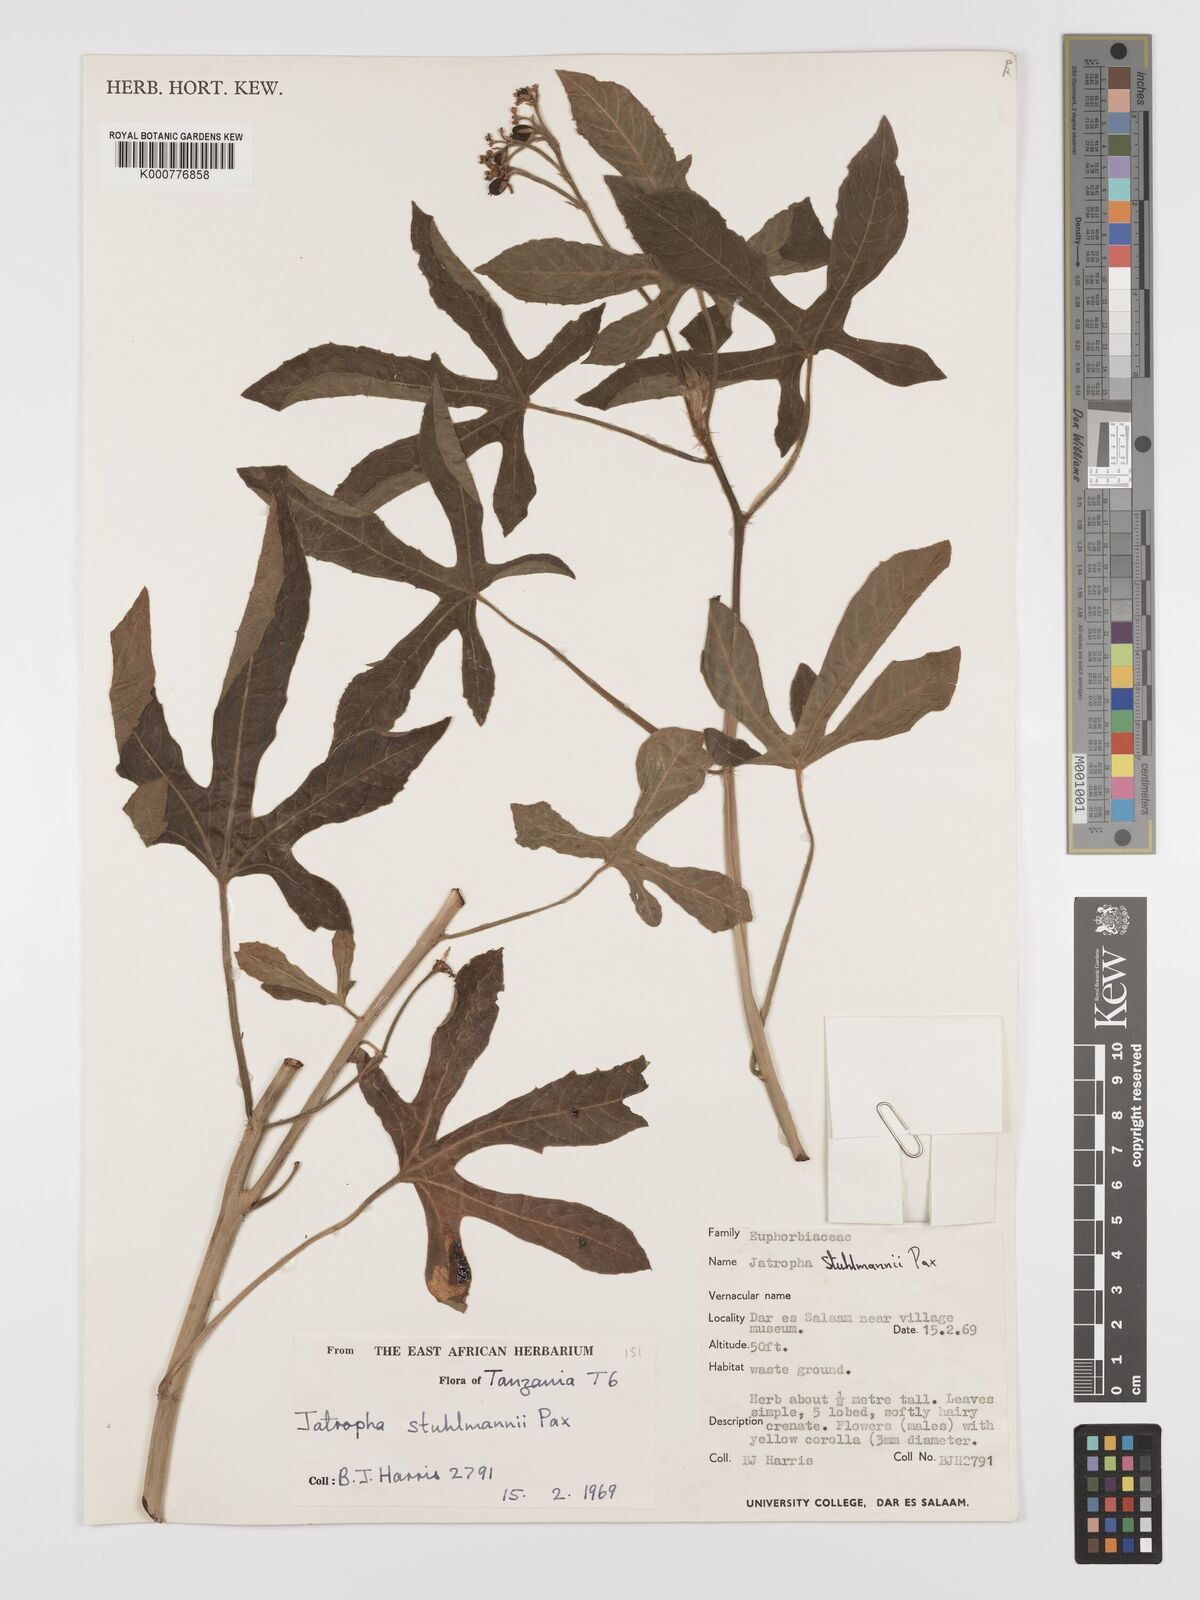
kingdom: Plantae
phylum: Tracheophyta
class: Magnoliopsida
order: Malpighiales
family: Euphorbiaceae
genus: Jatropha
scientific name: Jatropha stuhlmannii
